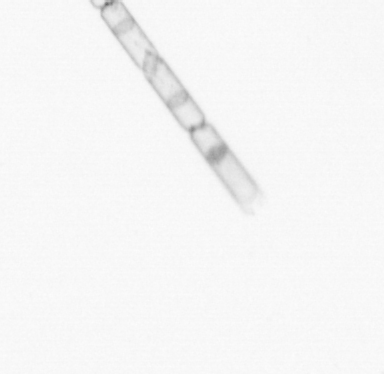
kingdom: Chromista
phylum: Ochrophyta
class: Bacillariophyceae
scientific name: Bacillariophyceae
